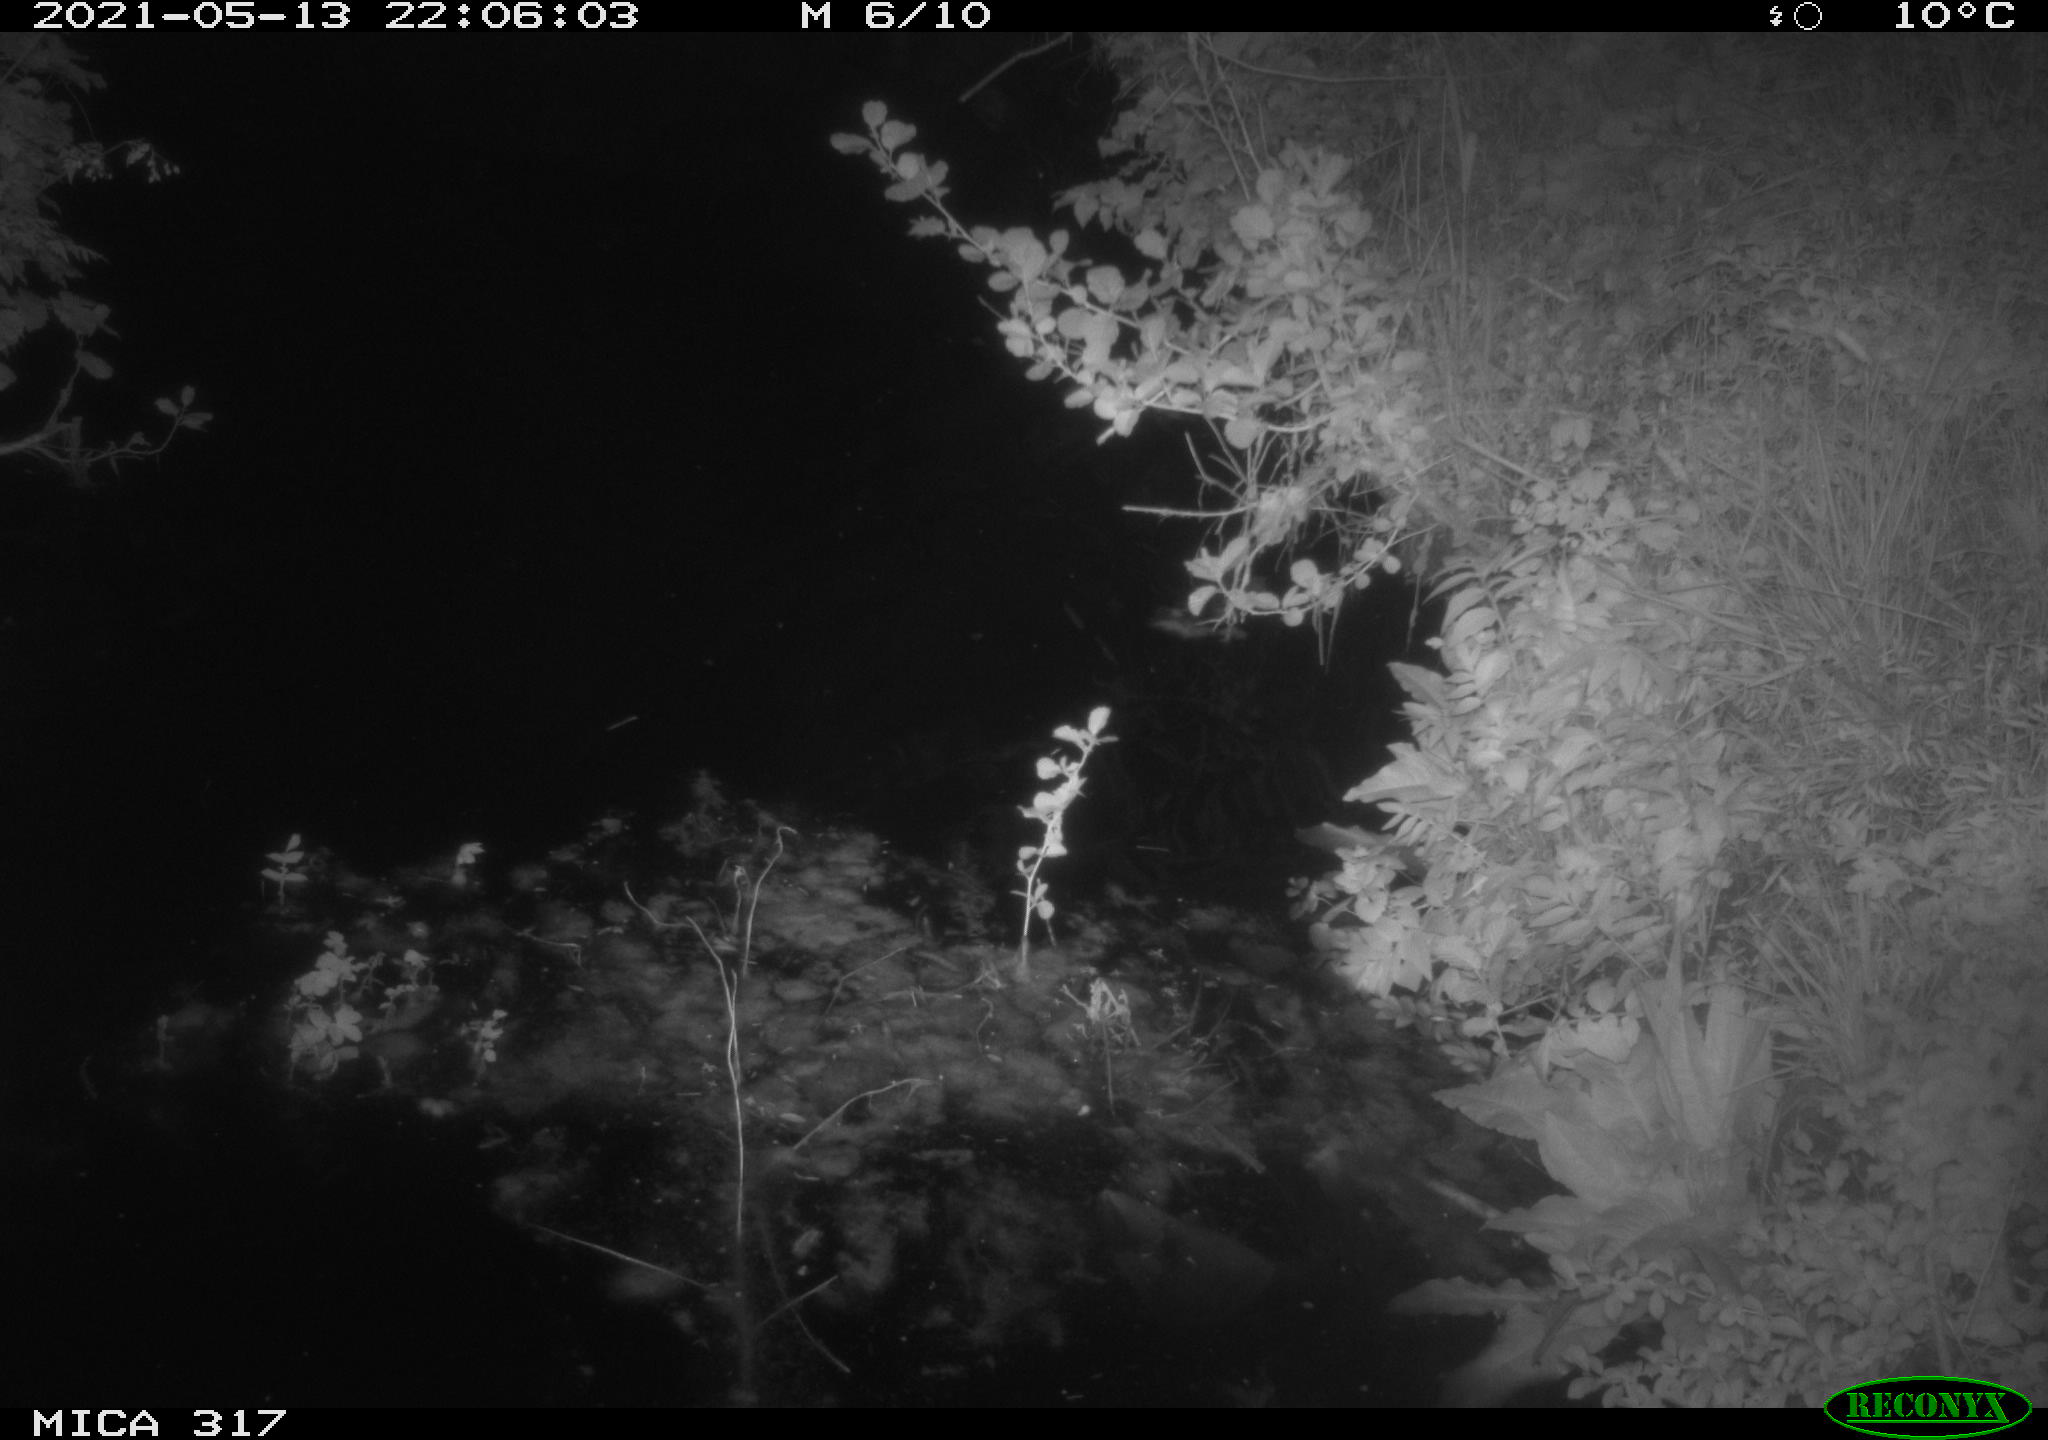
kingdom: Animalia
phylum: Chordata
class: Aves
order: Anseriformes
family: Anatidae
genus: Anas
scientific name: Anas
